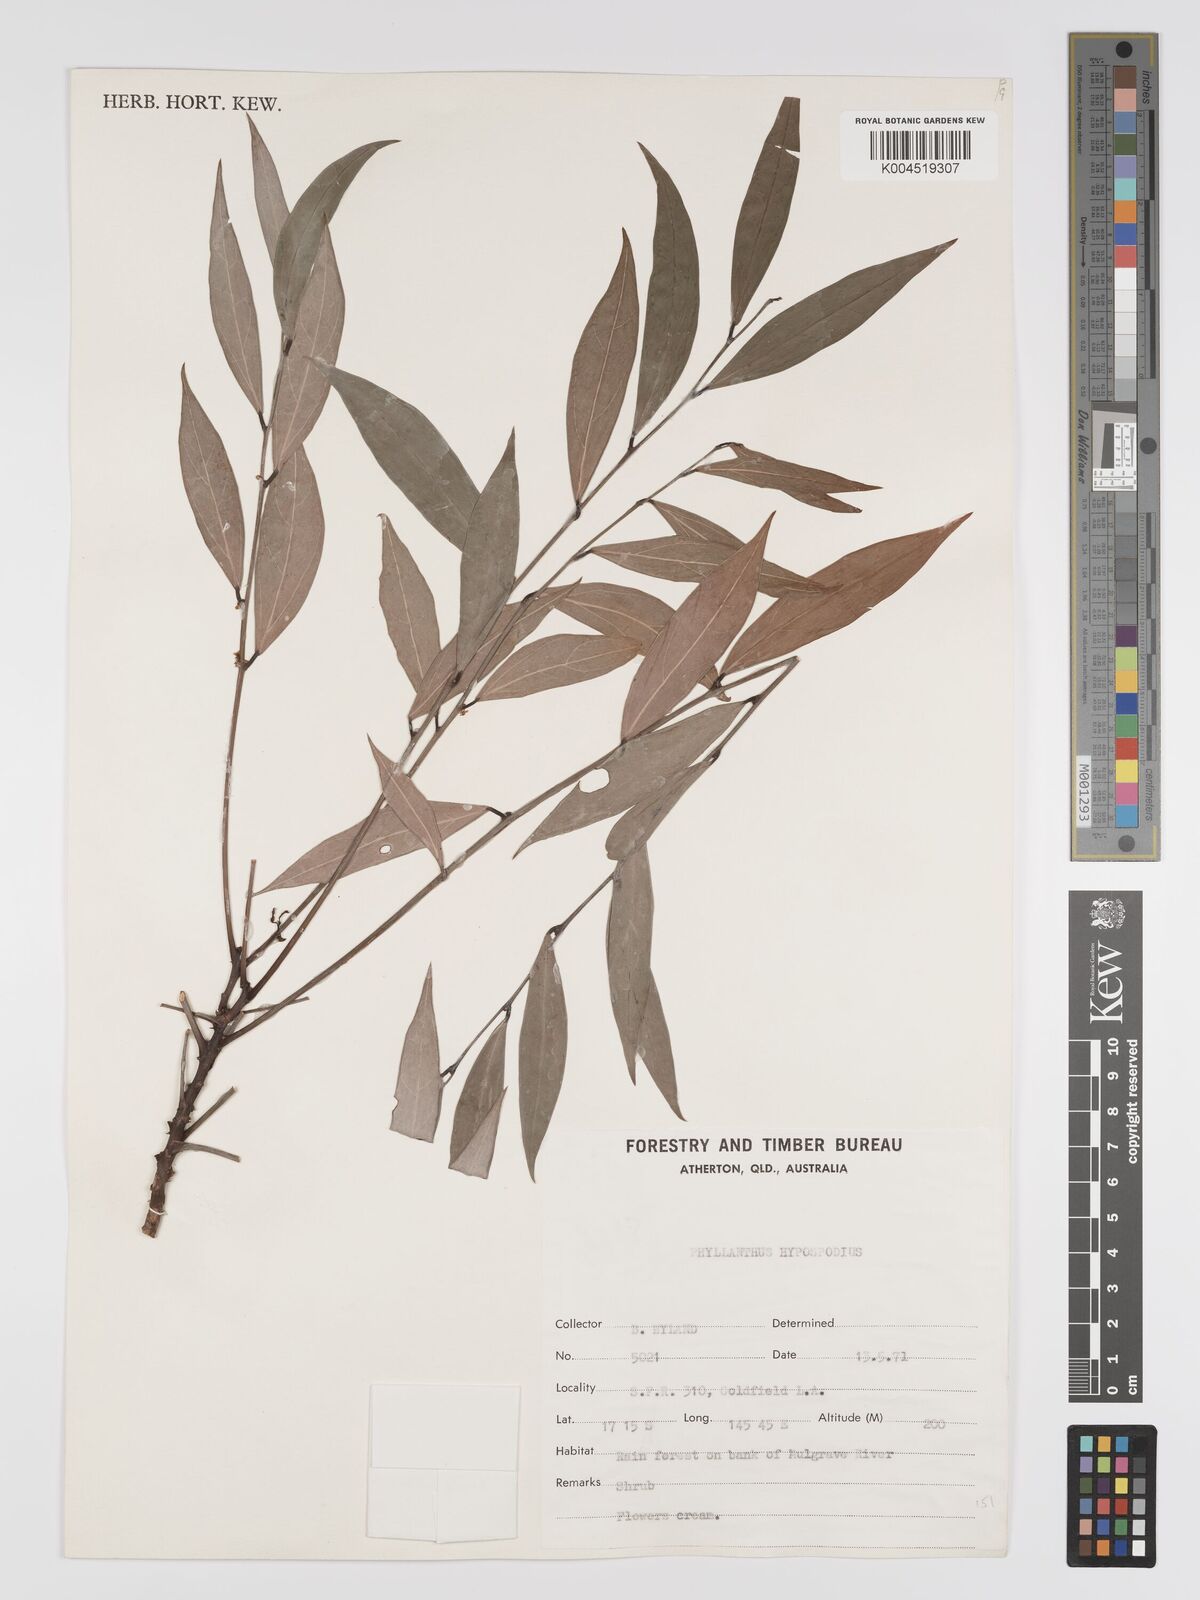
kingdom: Plantae
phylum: Tracheophyta
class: Magnoliopsida
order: Malpighiales
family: Phyllanthaceae
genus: Phyllanthus
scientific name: Phyllanthus hypospodius
